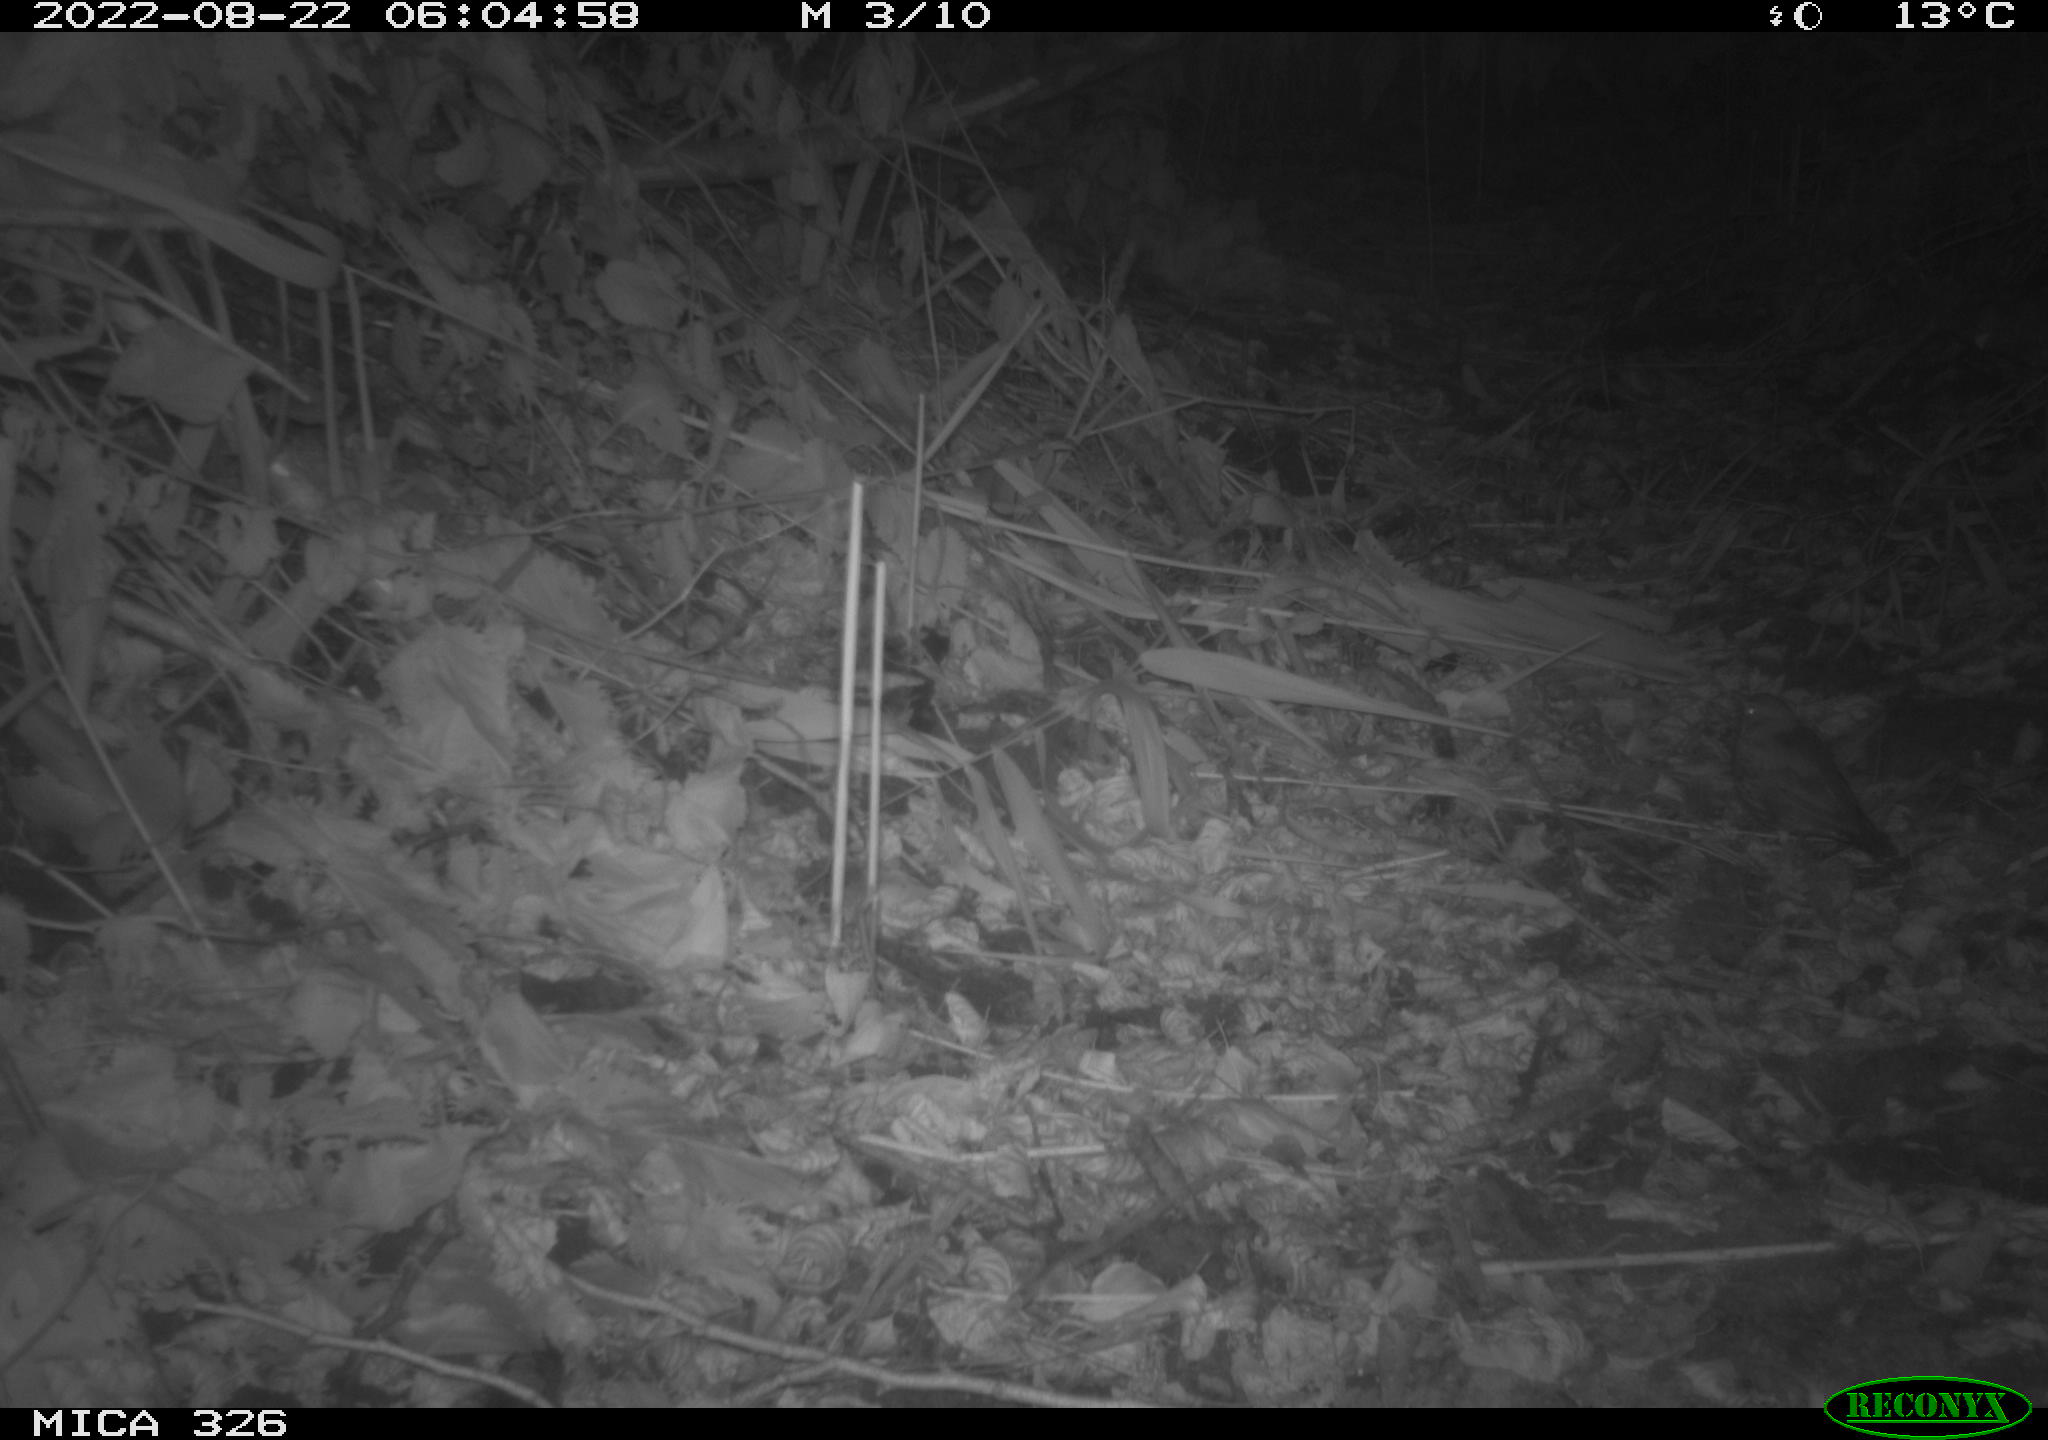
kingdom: Animalia
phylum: Chordata
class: Aves
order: Passeriformes
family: Turdidae
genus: Turdus
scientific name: Turdus merula
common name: Common blackbird
